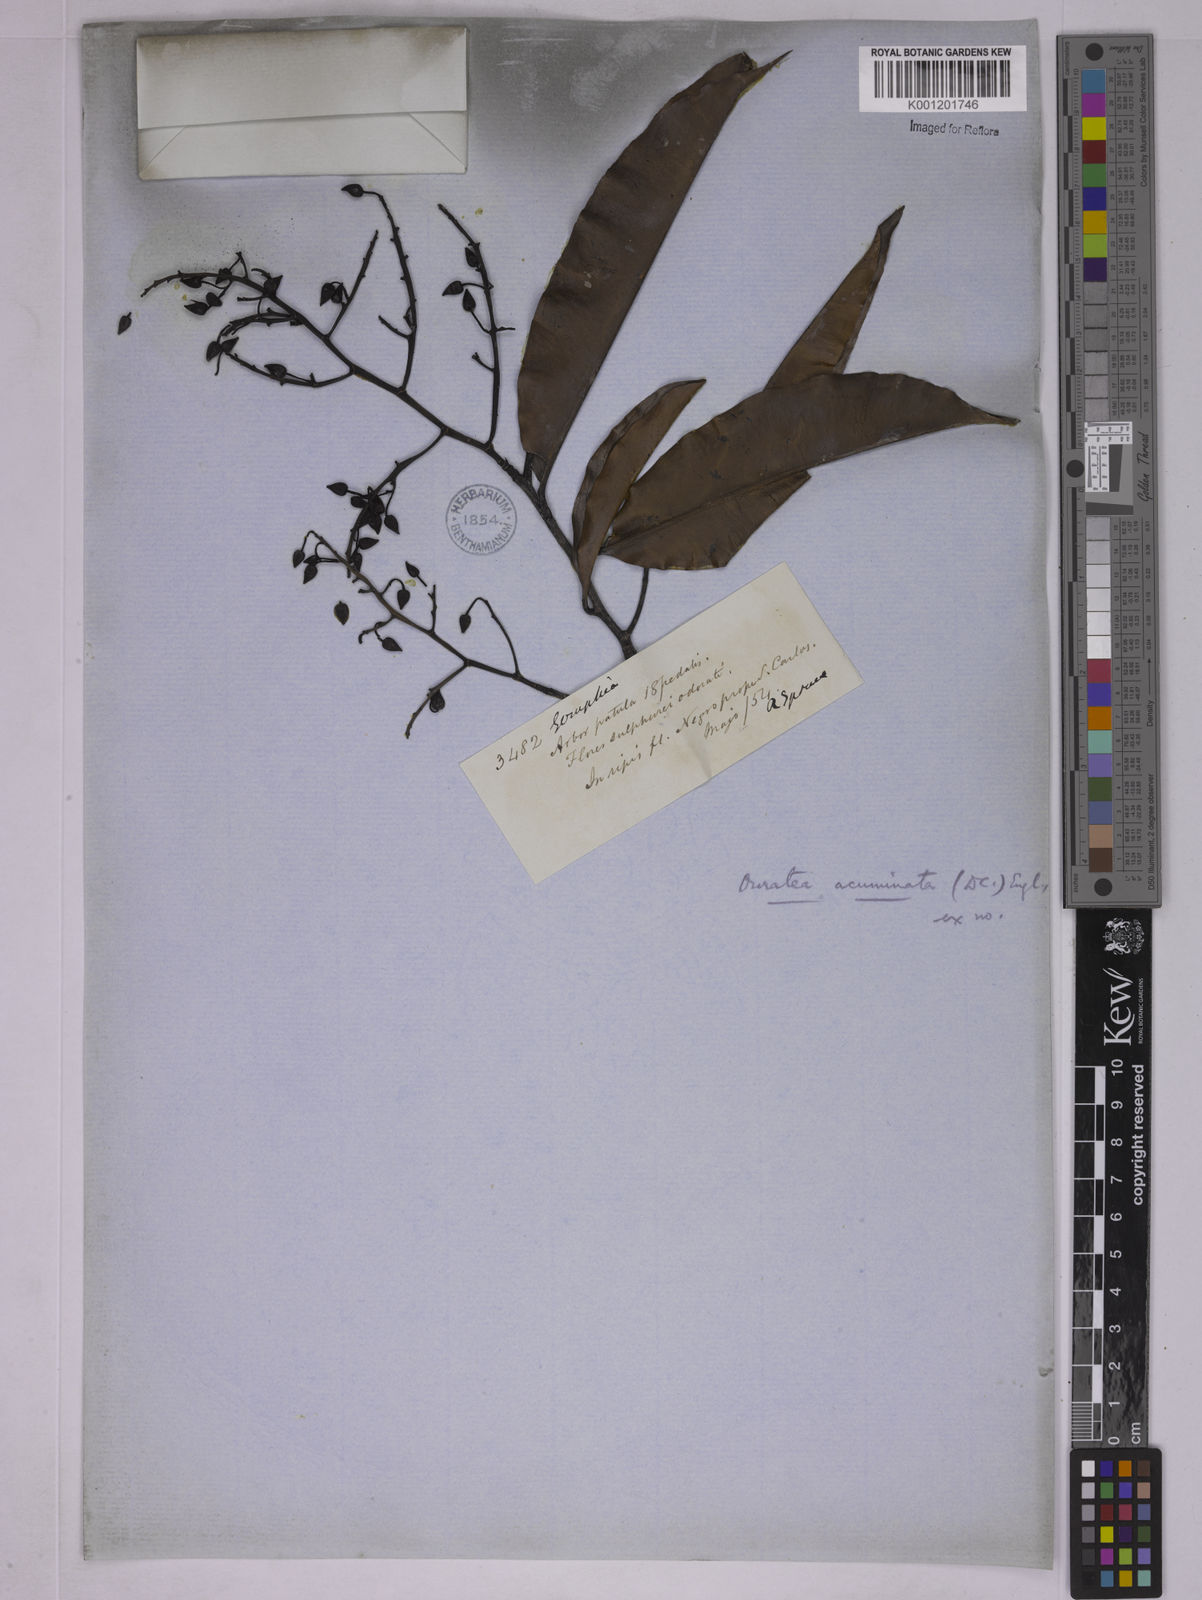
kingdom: Plantae
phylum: Tracheophyta
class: Magnoliopsida
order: Malpighiales
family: Ochnaceae
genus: Ouratea
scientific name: Ouratea acuminata
